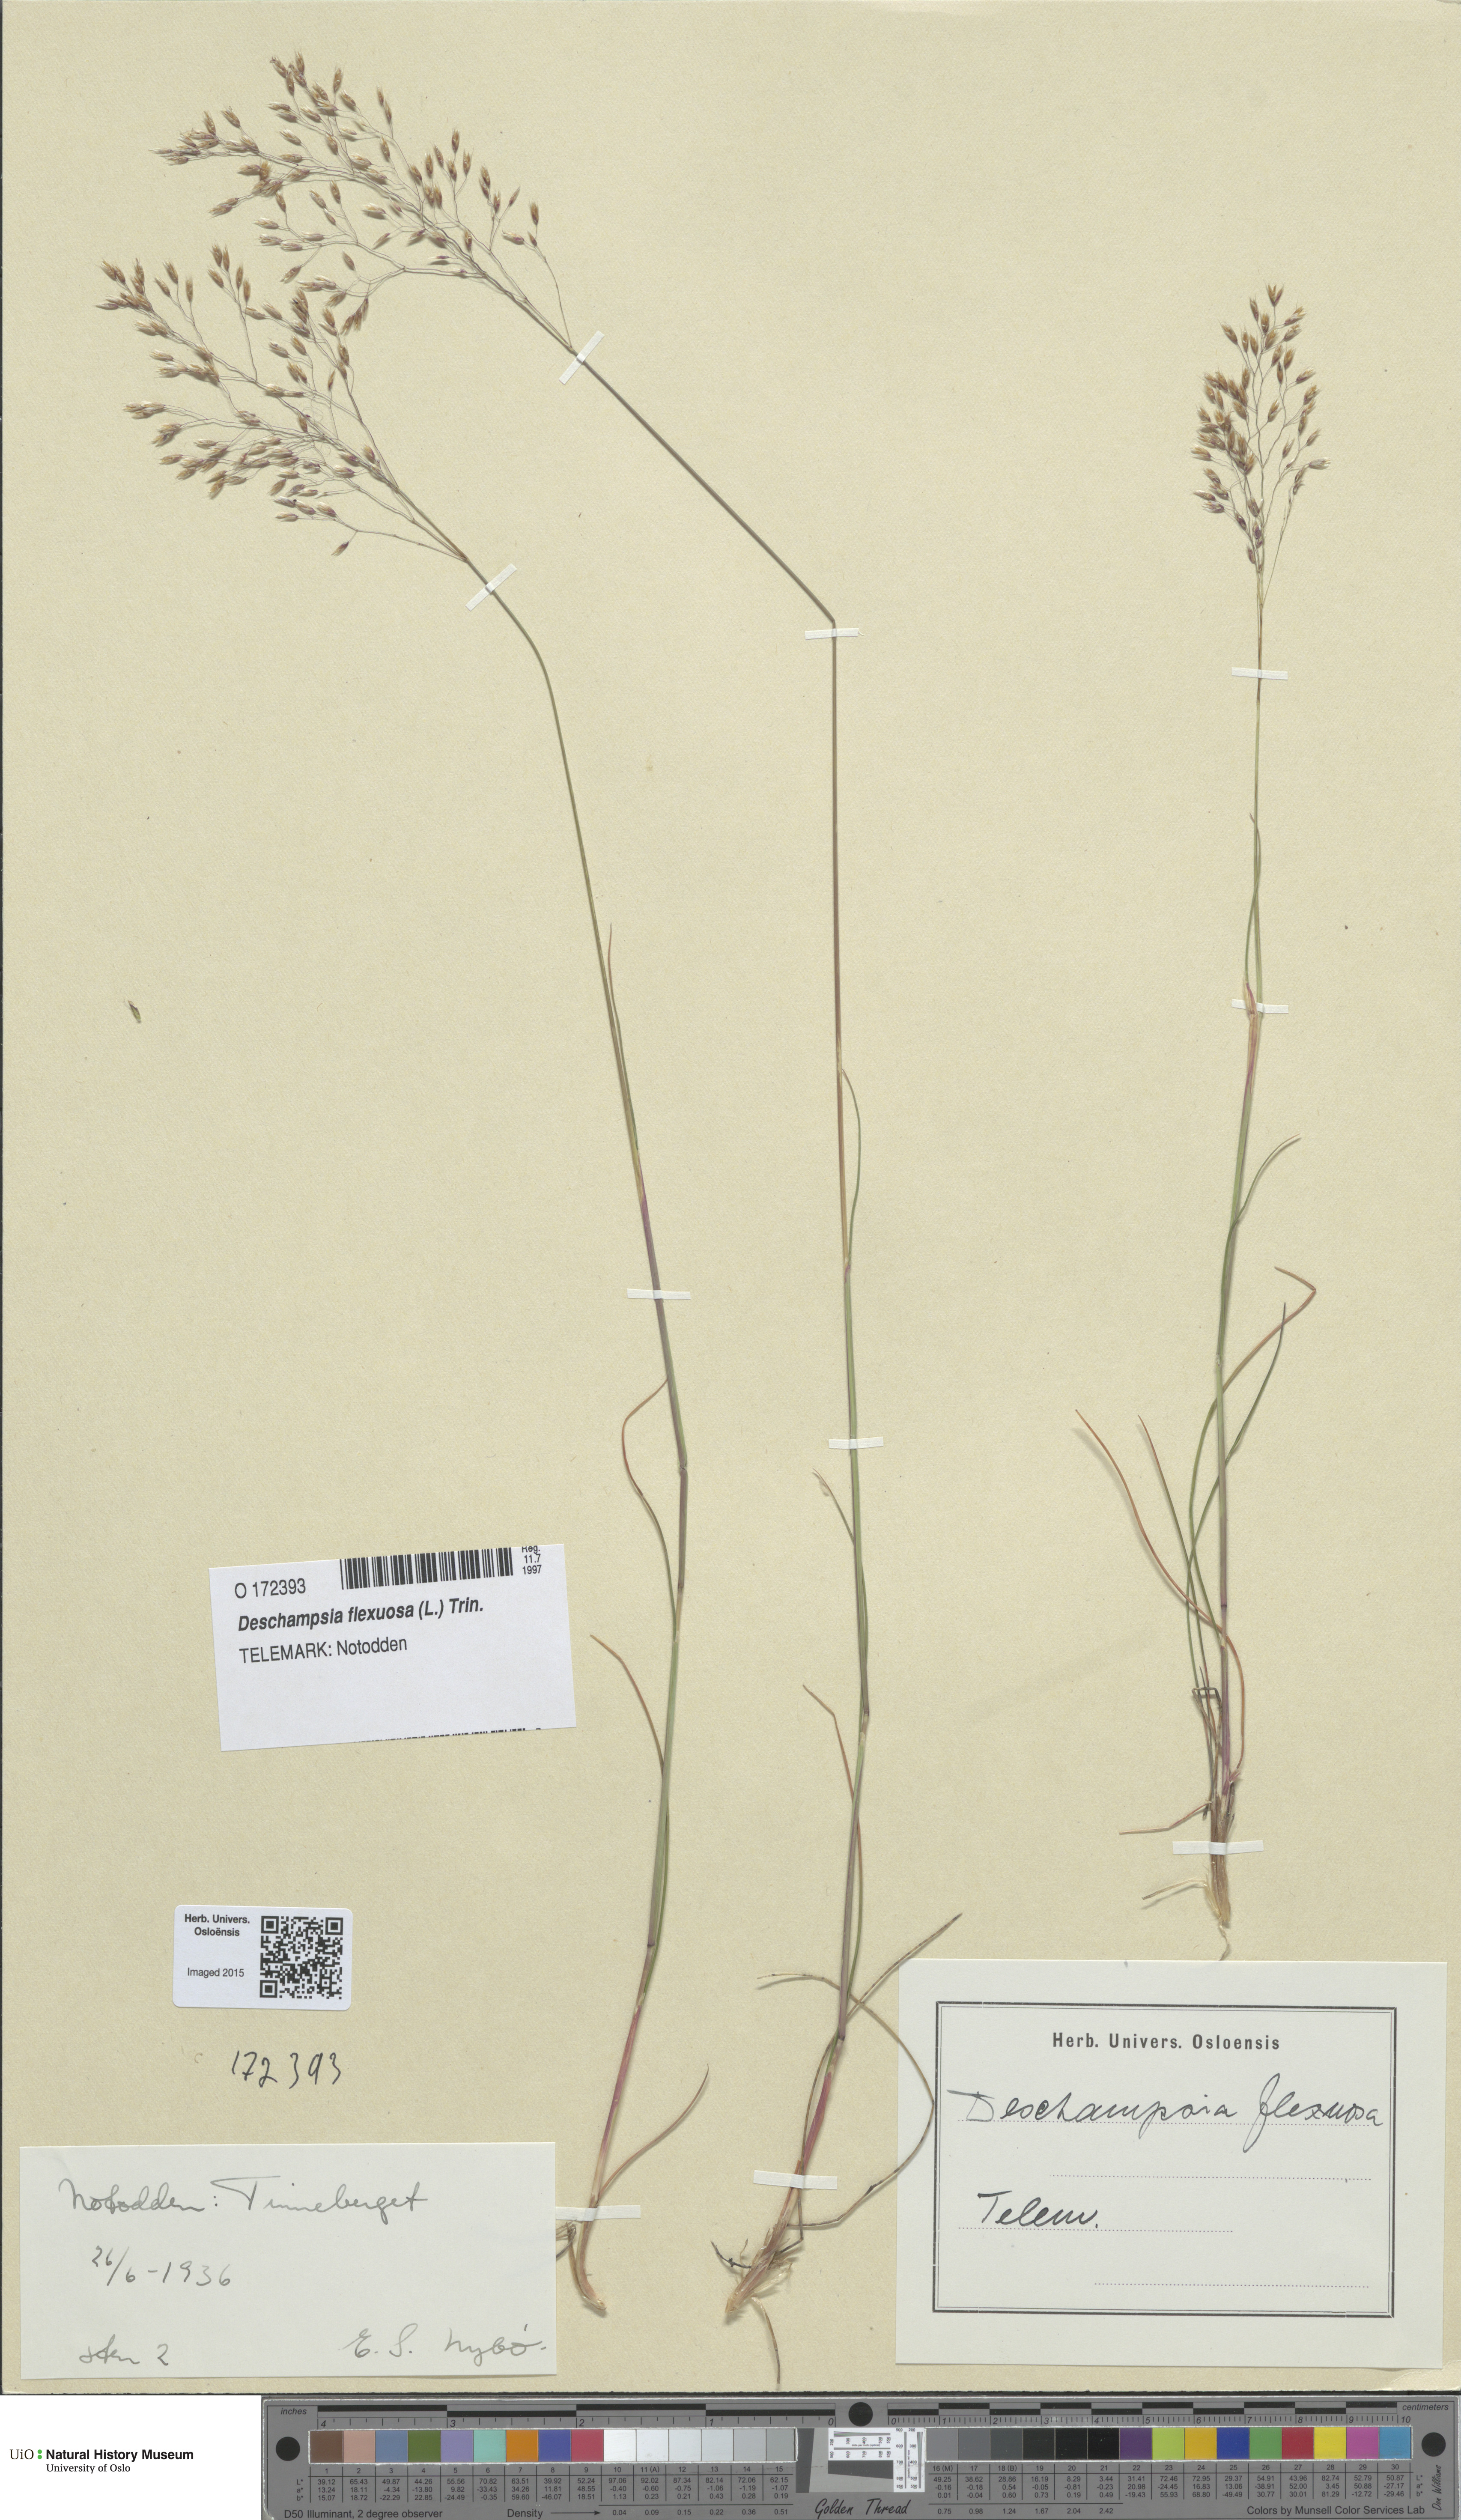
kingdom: Plantae
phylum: Tracheophyta
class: Liliopsida
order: Poales
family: Poaceae
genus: Avenella
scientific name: Avenella flexuosa
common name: Wavy hairgrass
